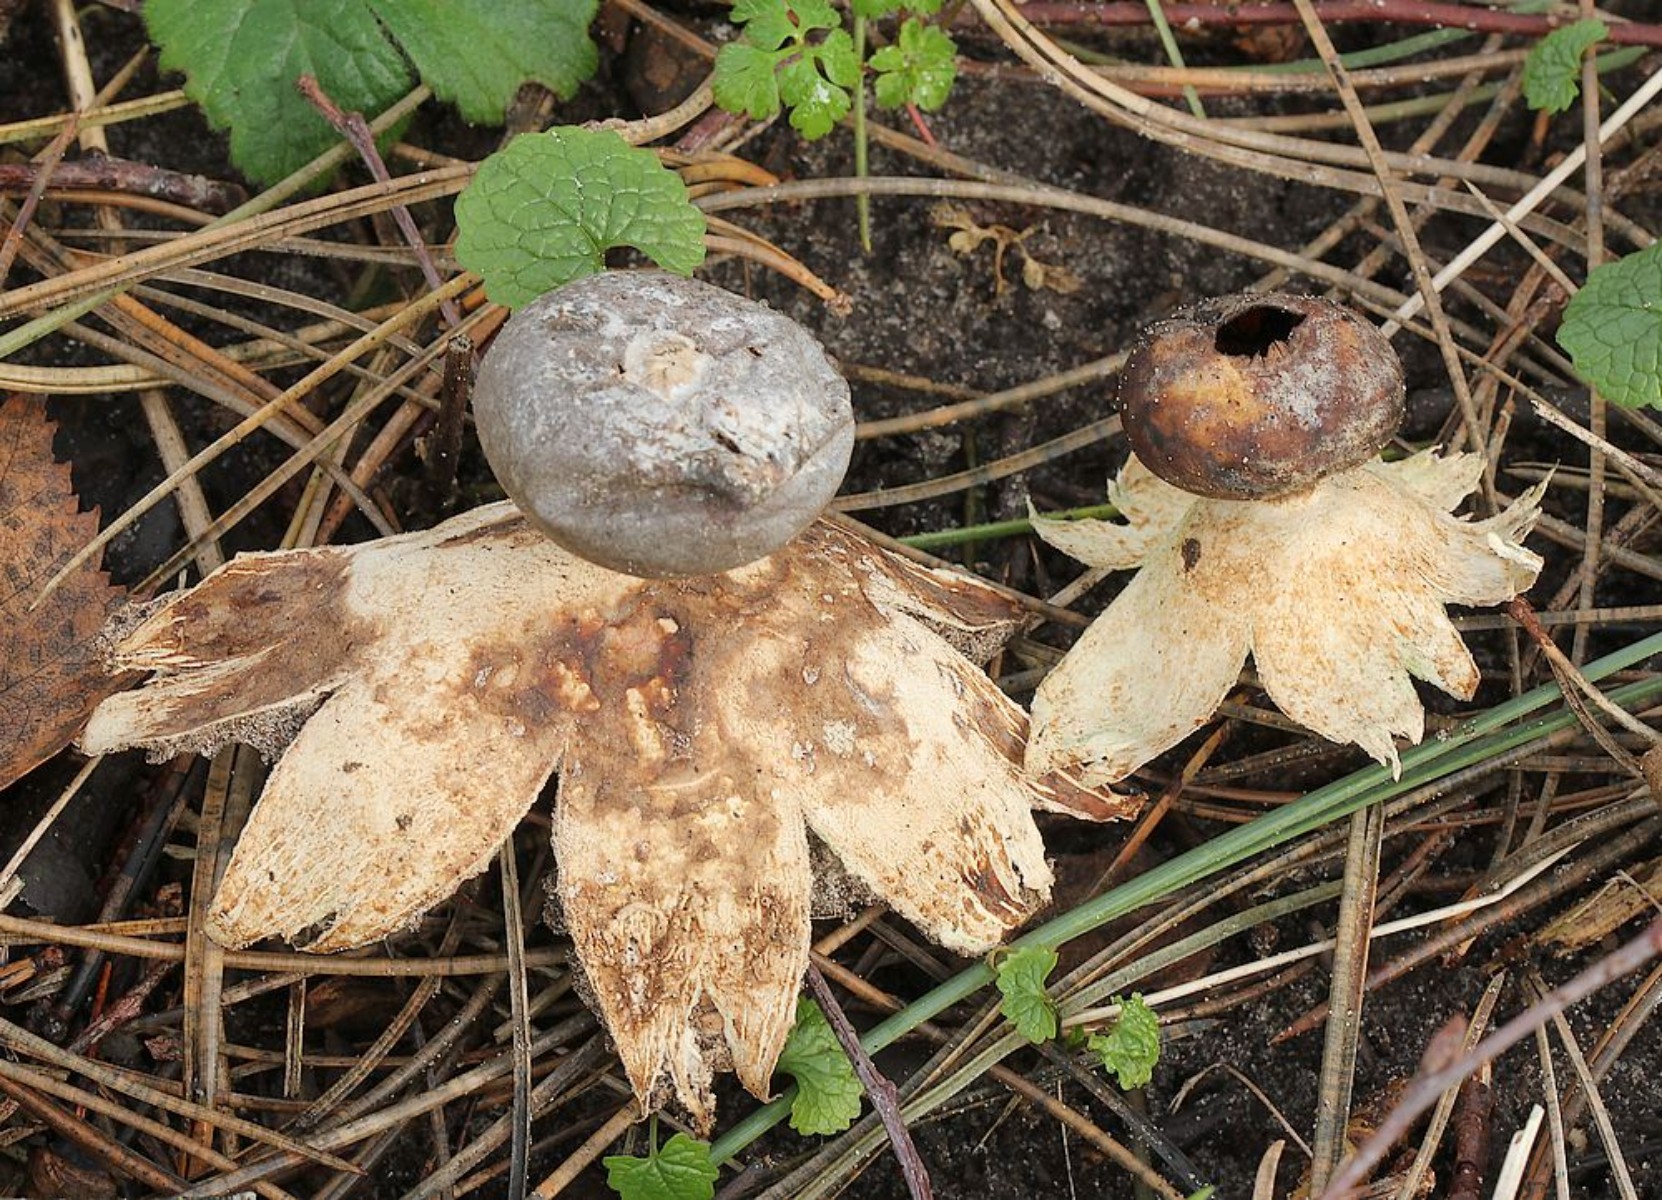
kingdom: Fungi
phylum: Basidiomycota
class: Agaricomycetes
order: Geastrales
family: Geastraceae
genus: Geastrum
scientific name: Geastrum coronatum
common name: mørk stjernebold
